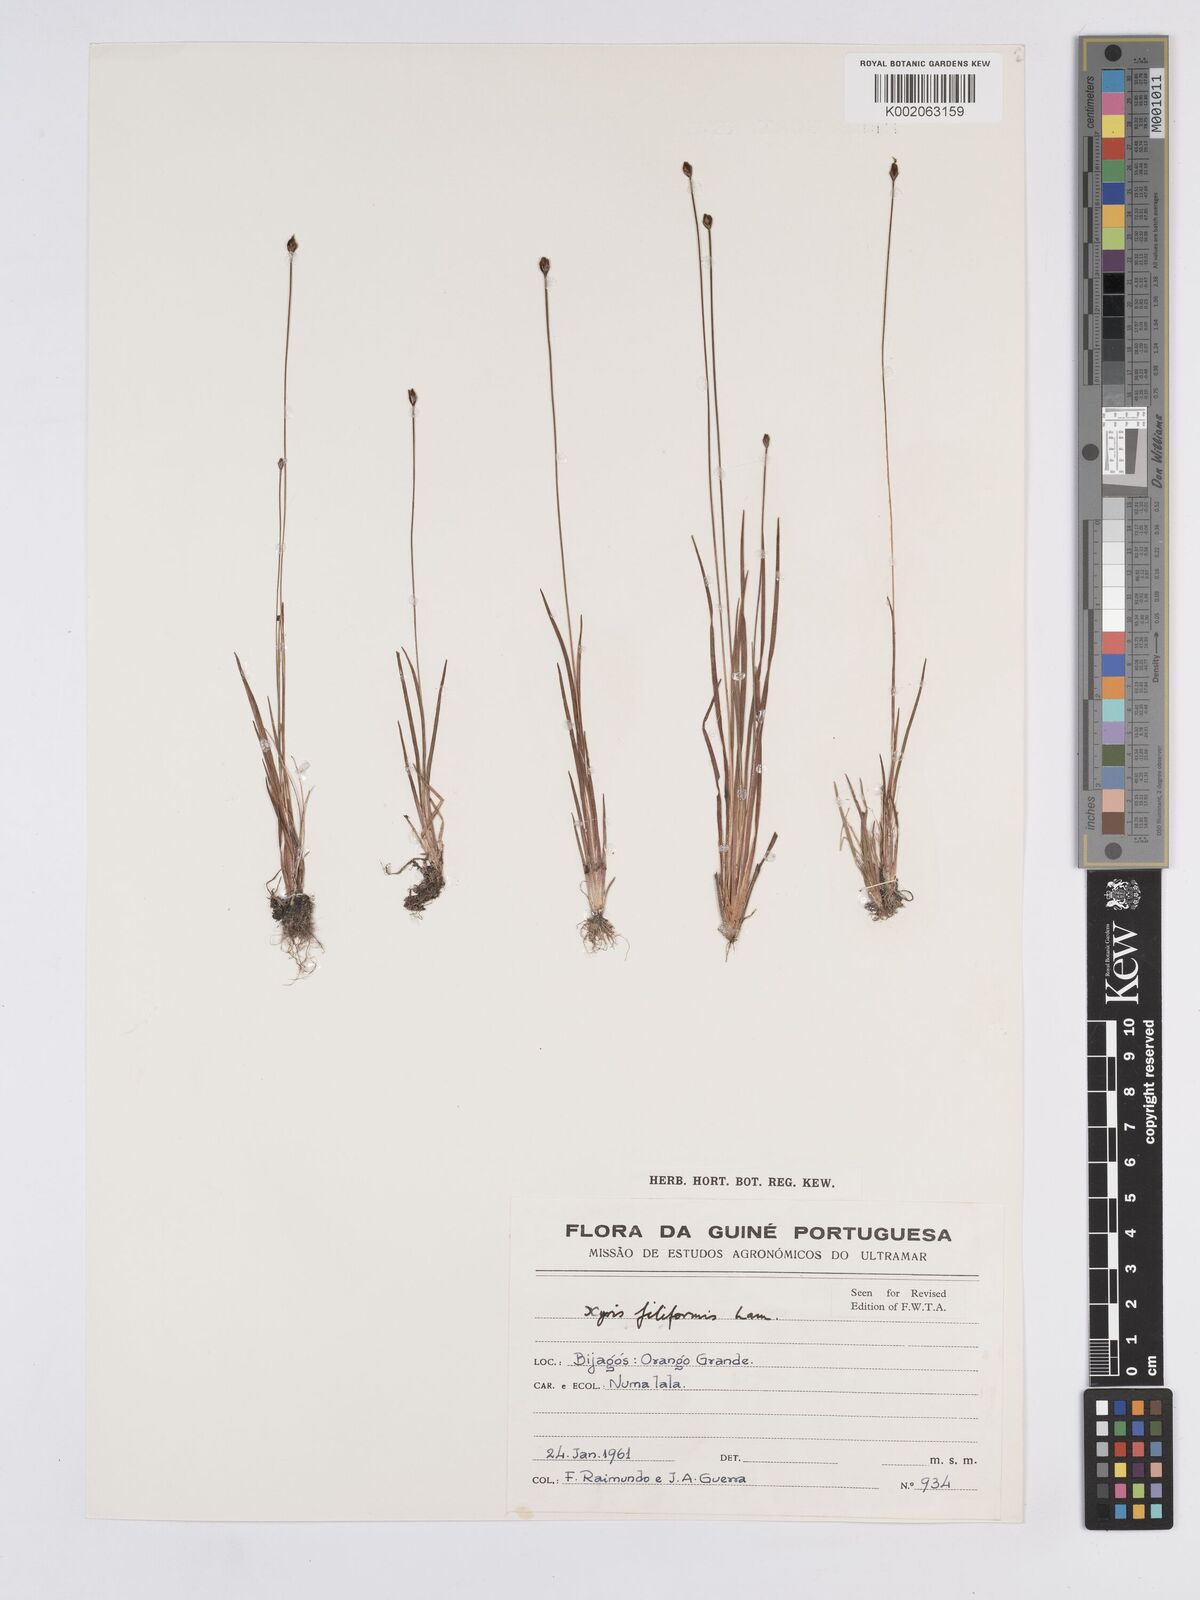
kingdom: Plantae
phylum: Tracheophyta
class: Liliopsida
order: Poales
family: Xyridaceae
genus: Xyris
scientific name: Xyris filiformis
